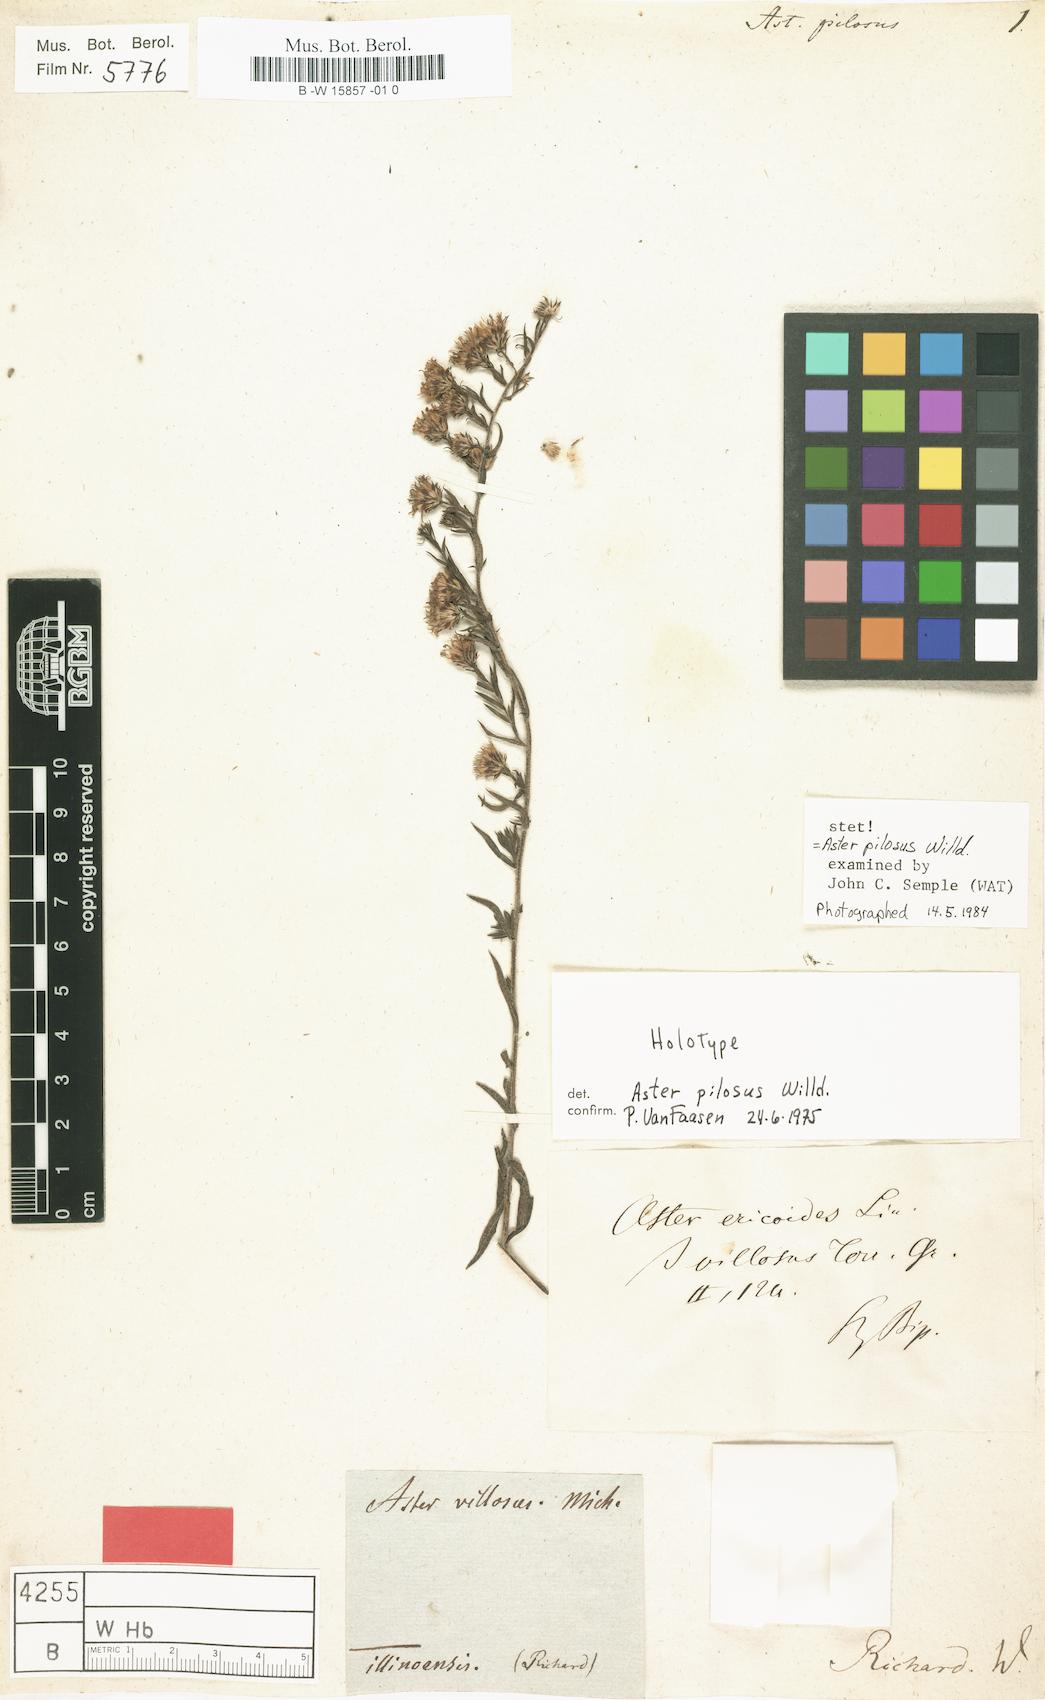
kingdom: Plantae
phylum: Tracheophyta
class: Magnoliopsida
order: Asterales
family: Asteraceae
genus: Symphyotrichum
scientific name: Symphyotrichum pilosum
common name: Awl aster
